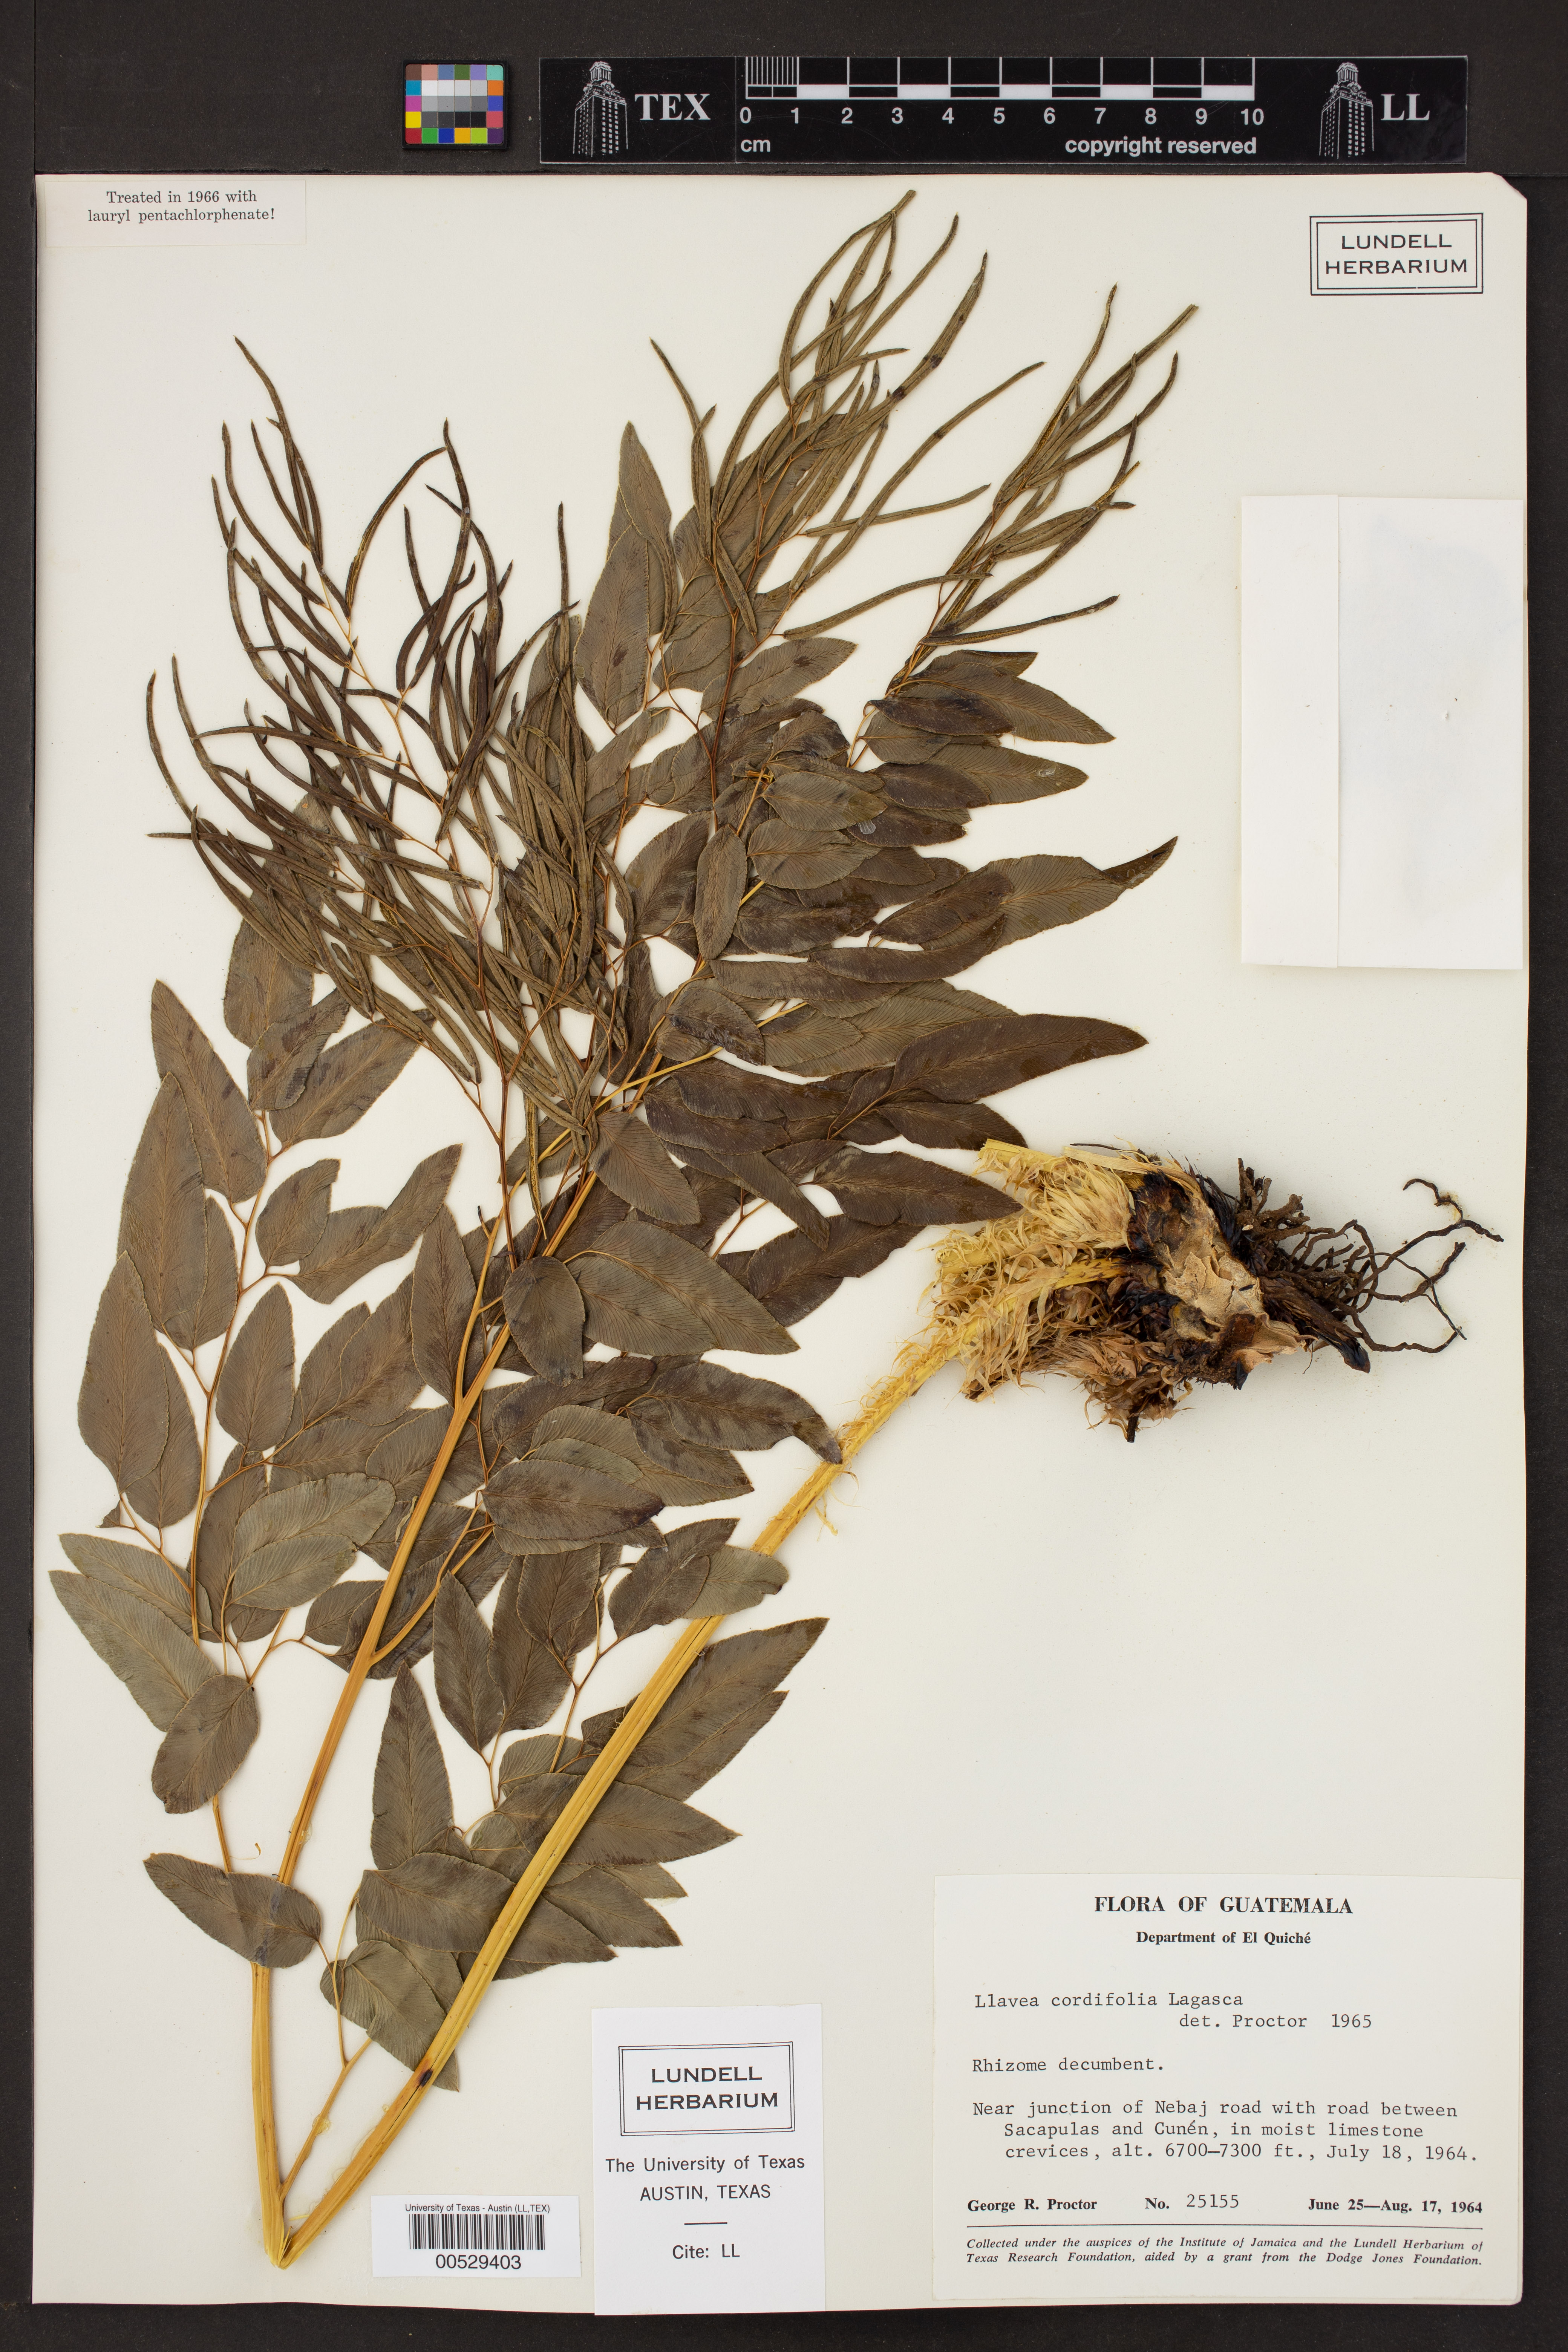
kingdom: Plantae
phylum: Tracheophyta
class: Polypodiopsida
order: Polypodiales
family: Pteridaceae
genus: Llavea
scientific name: Llavea cordifolia
